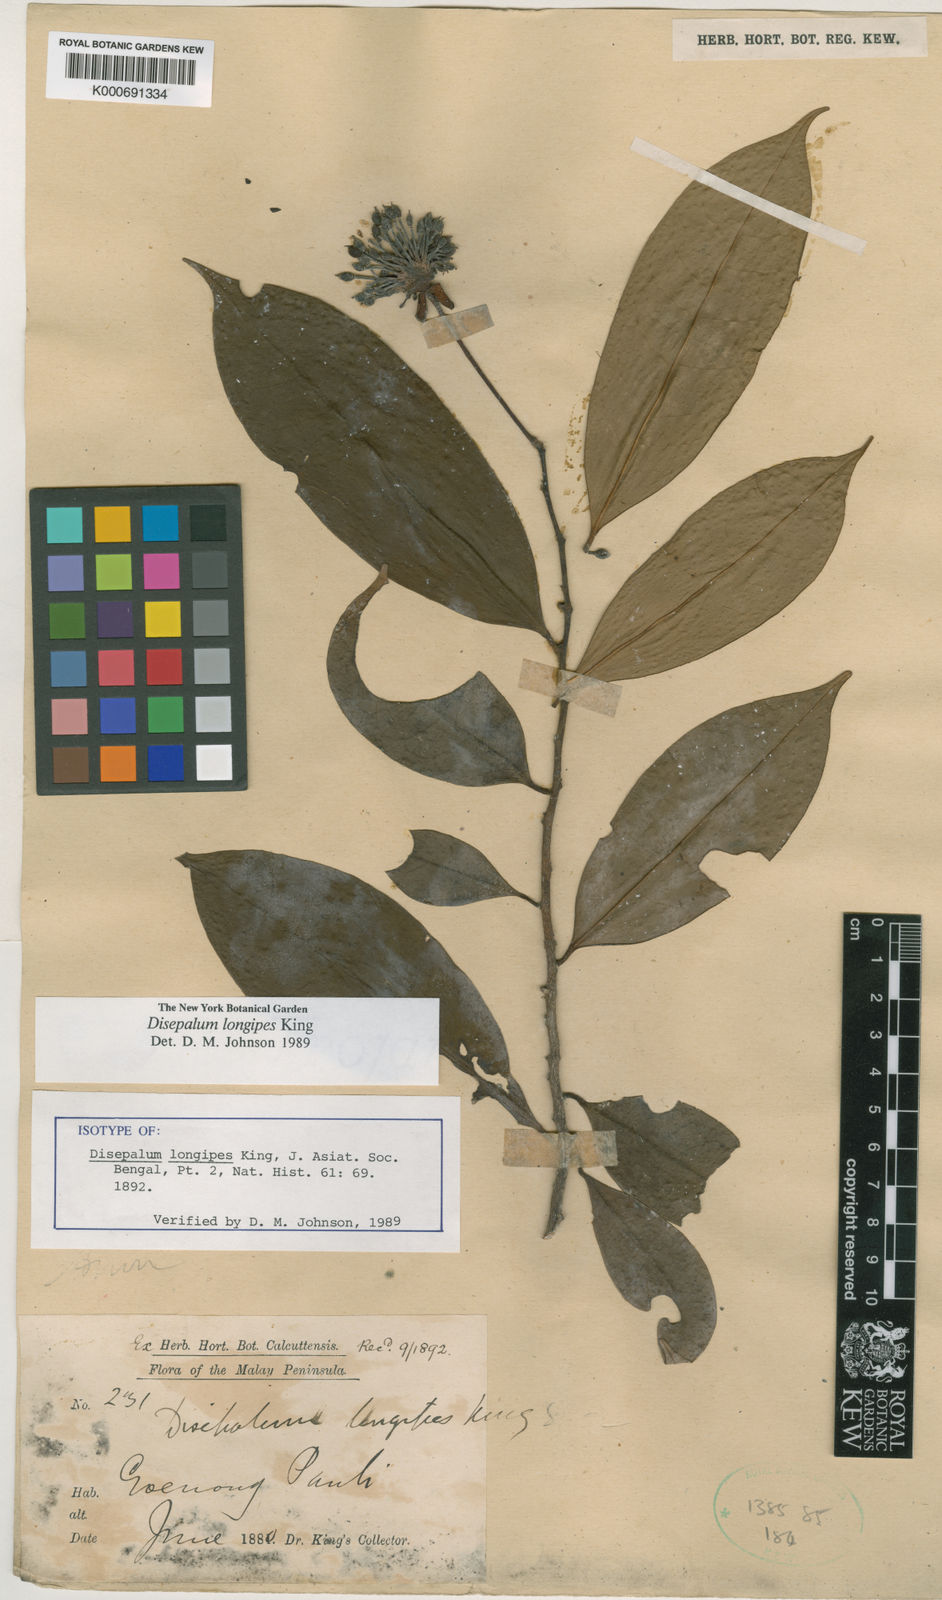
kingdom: Plantae
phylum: Tracheophyta
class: Magnoliopsida
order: Magnoliales
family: Annonaceae
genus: Disepalum
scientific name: Disepalum longipes
